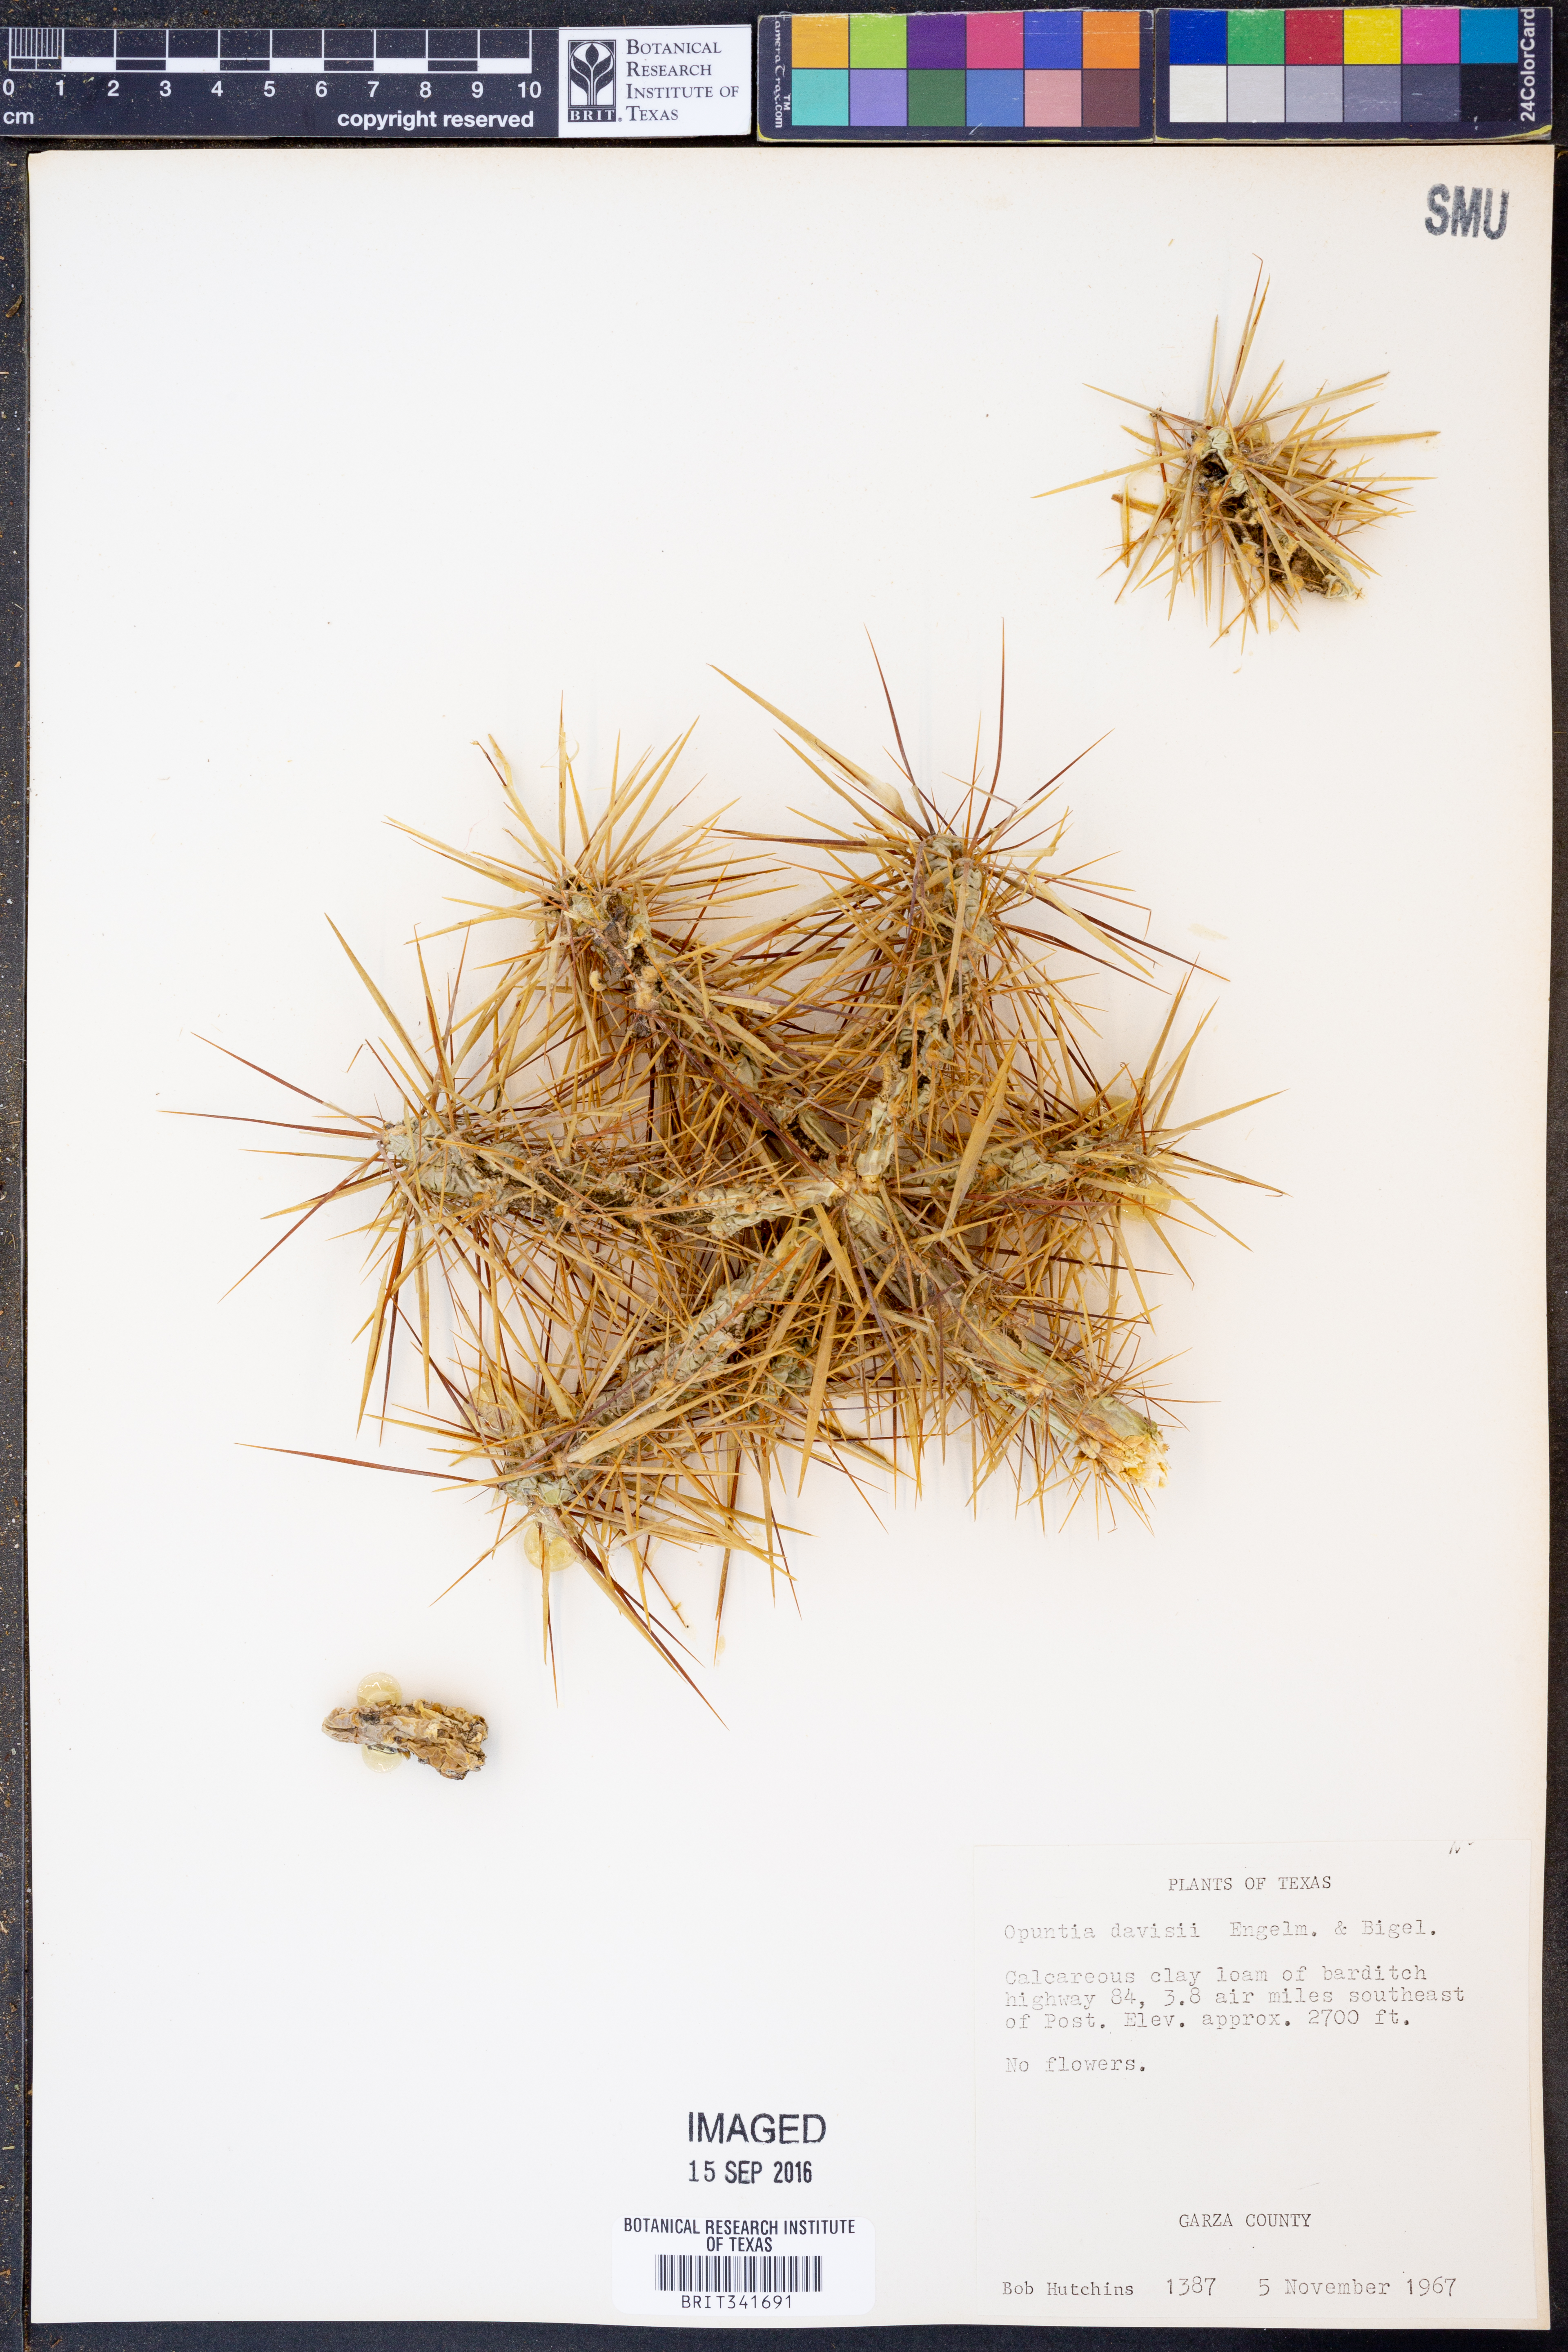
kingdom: Plantae
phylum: Tracheophyta
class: Magnoliopsida
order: Caryophyllales
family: Cactaceae
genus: Cylindropuntia
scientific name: Cylindropuntia davisii
